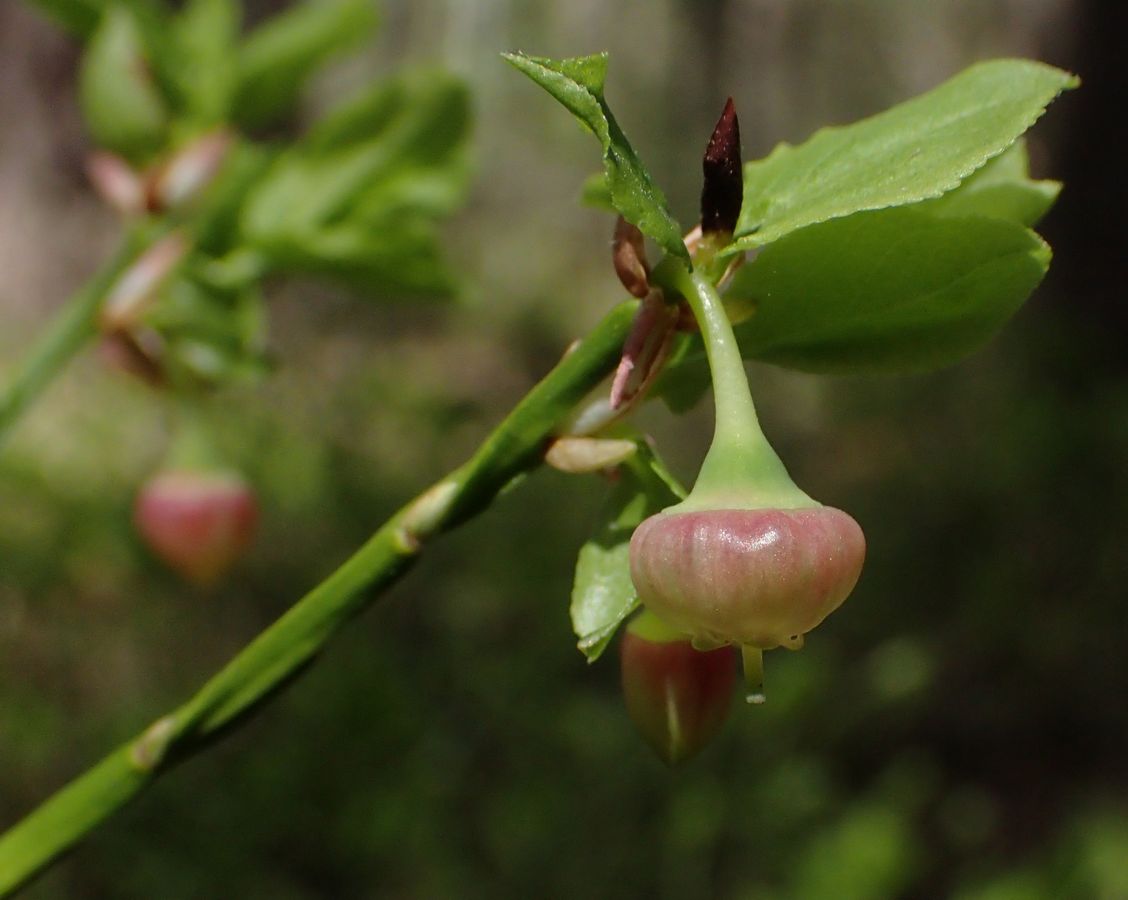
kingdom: Plantae
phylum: Tracheophyta
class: Magnoliopsida
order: Ericales
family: Ericaceae
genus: Vaccinium
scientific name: Vaccinium myrtillus
